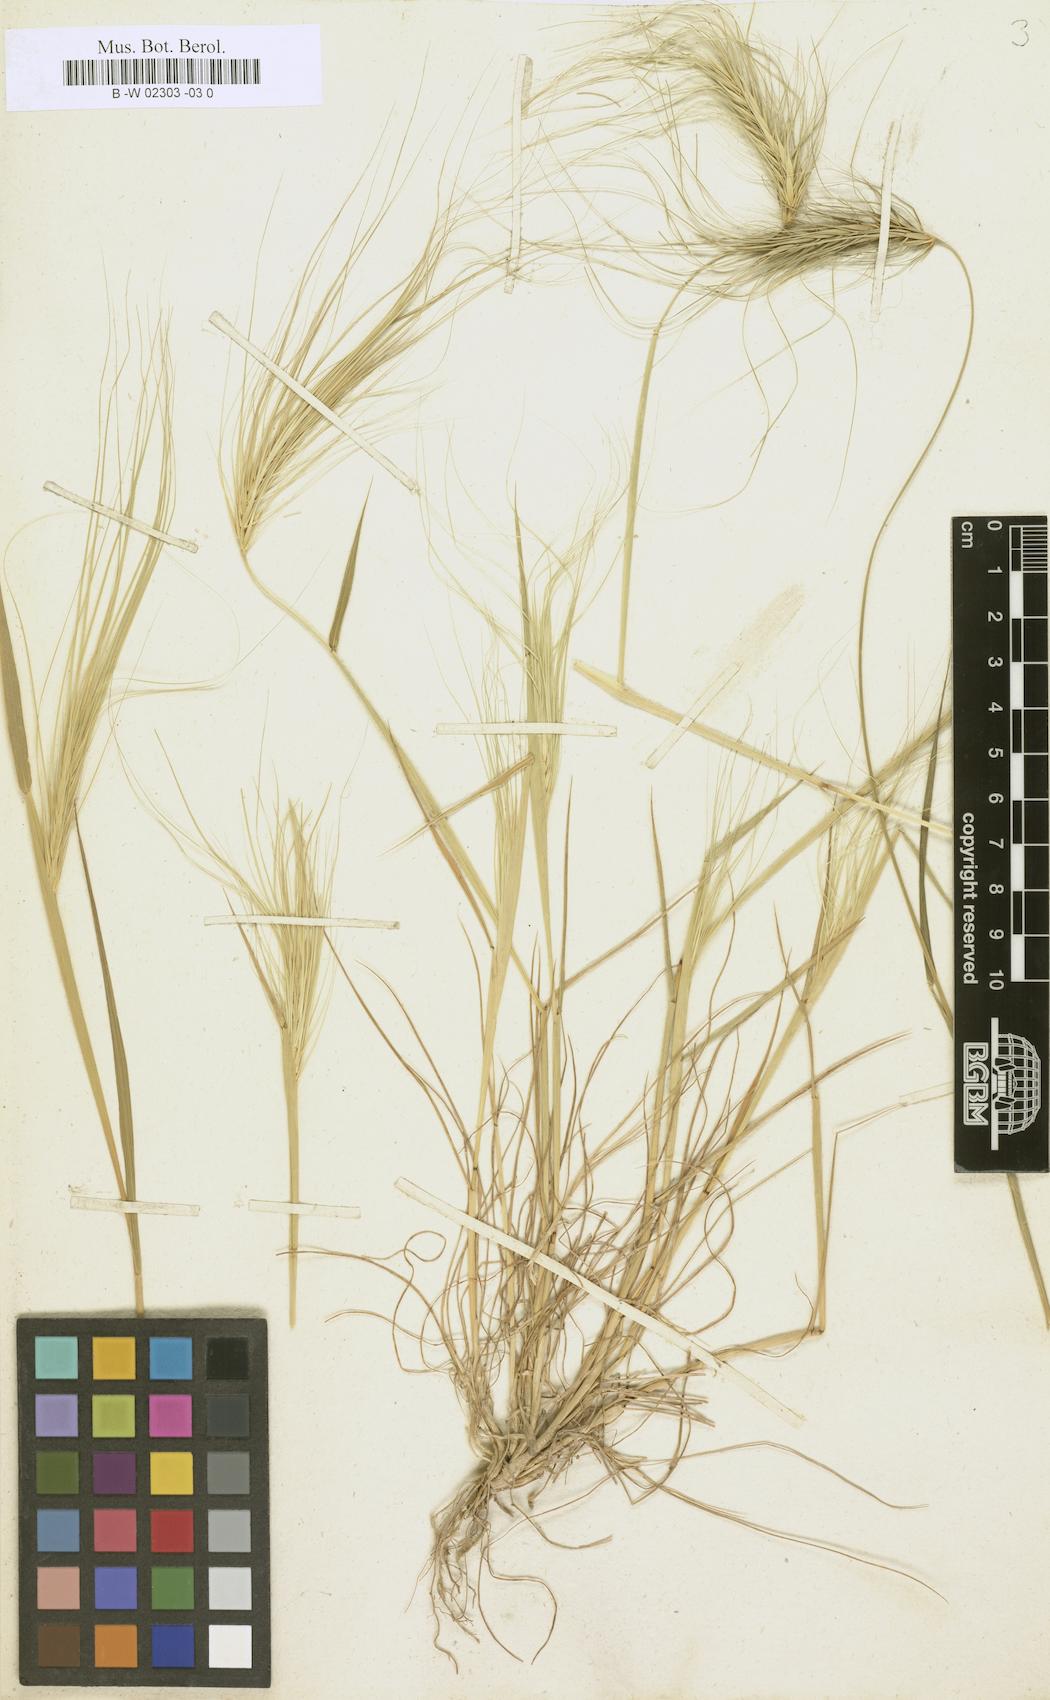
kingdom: Plantae
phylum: Tracheophyta
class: Liliopsida
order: Poales
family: Poaceae
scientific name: Poaceae
